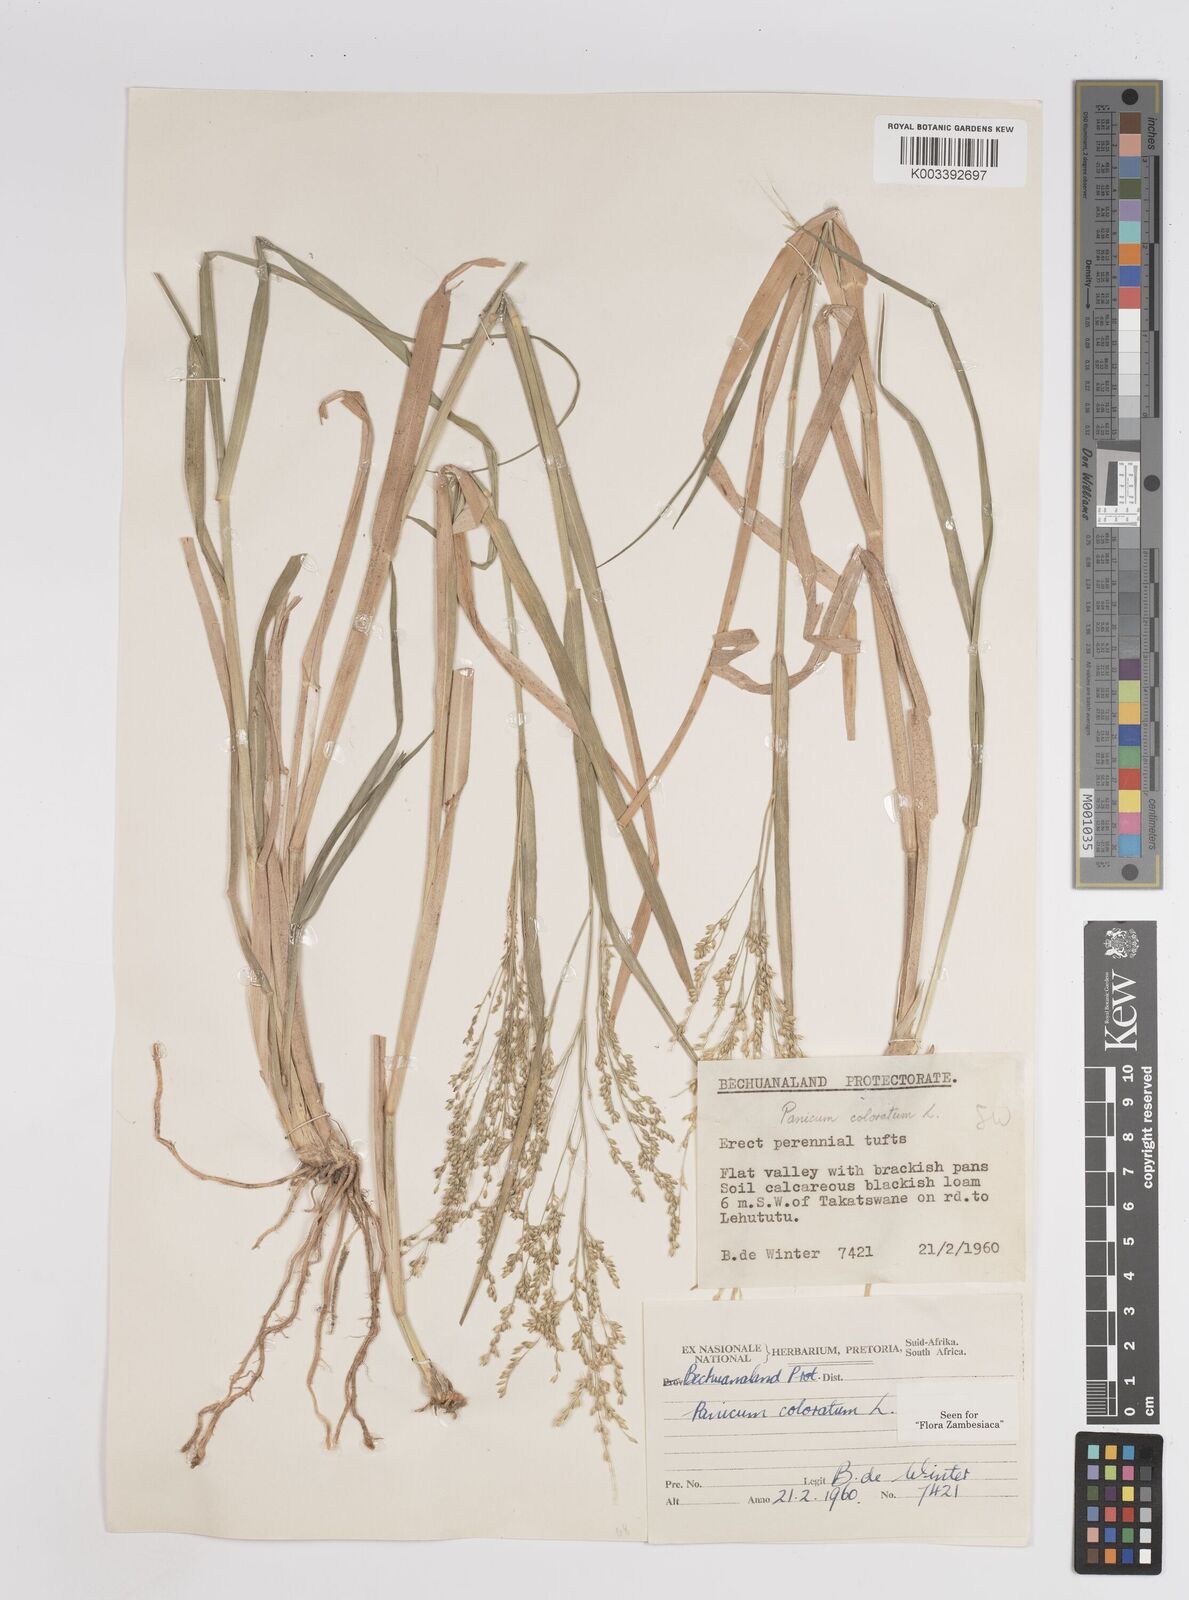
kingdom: Plantae
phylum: Tracheophyta
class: Liliopsida
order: Poales
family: Poaceae
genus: Panicum
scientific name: Panicum coloratum
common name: Kleingrass
